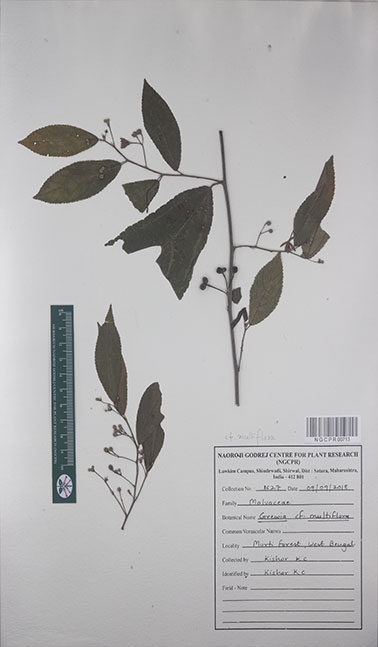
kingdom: Plantae
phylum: Tracheophyta
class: Magnoliopsida
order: Malvales
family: Malvaceae
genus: Grewia
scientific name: Grewia multiflora
